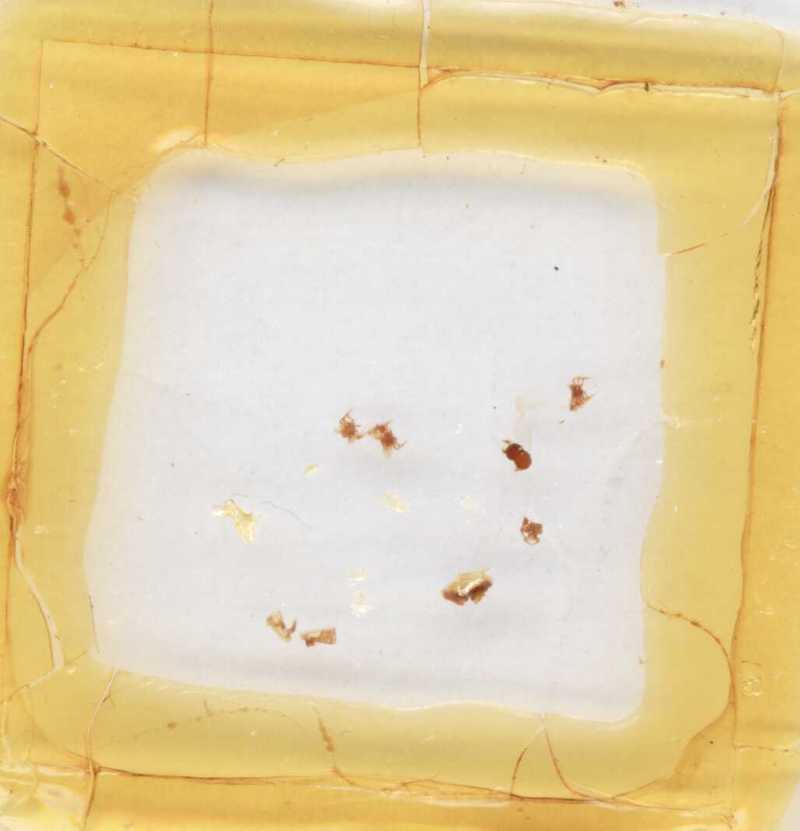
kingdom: Animalia
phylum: Arthropoda
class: Diplopoda
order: Glomerida
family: Glomeridae
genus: Geoglomeris
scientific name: Geoglomeris subterranea
